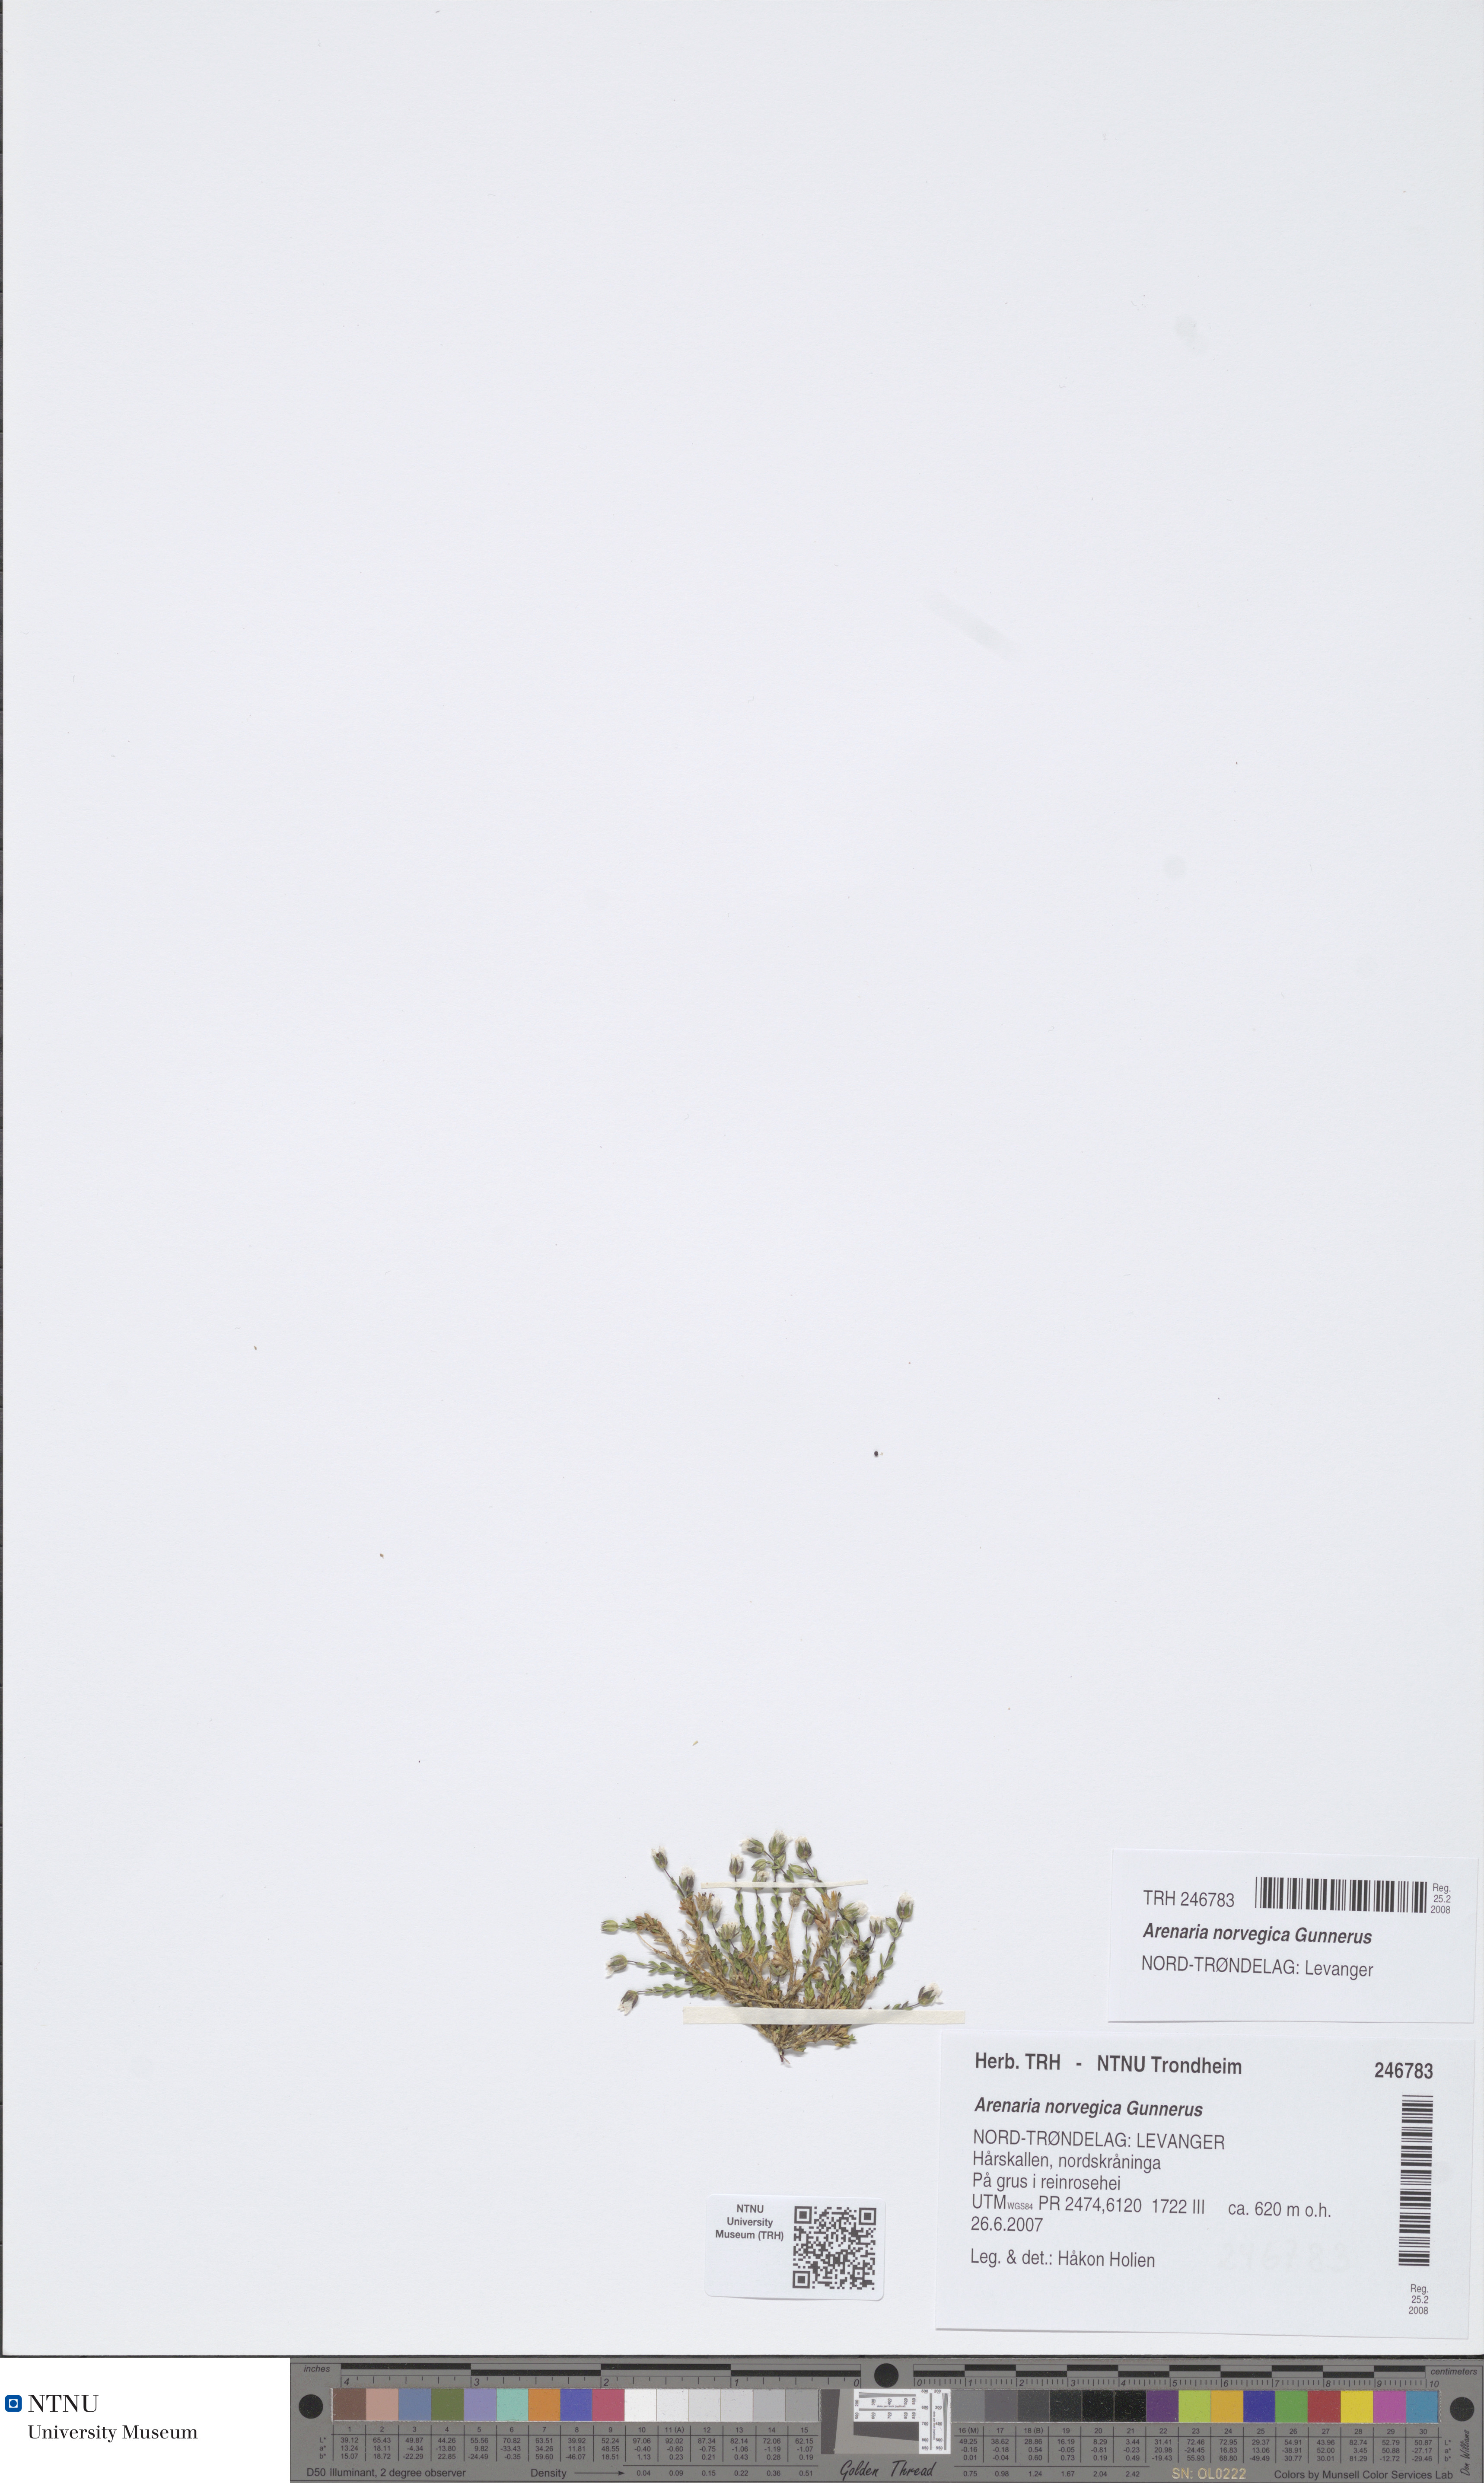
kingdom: Plantae
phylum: Tracheophyta
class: Magnoliopsida
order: Caryophyllales
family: Caryophyllaceae
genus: Arenaria
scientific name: Arenaria norvegica
